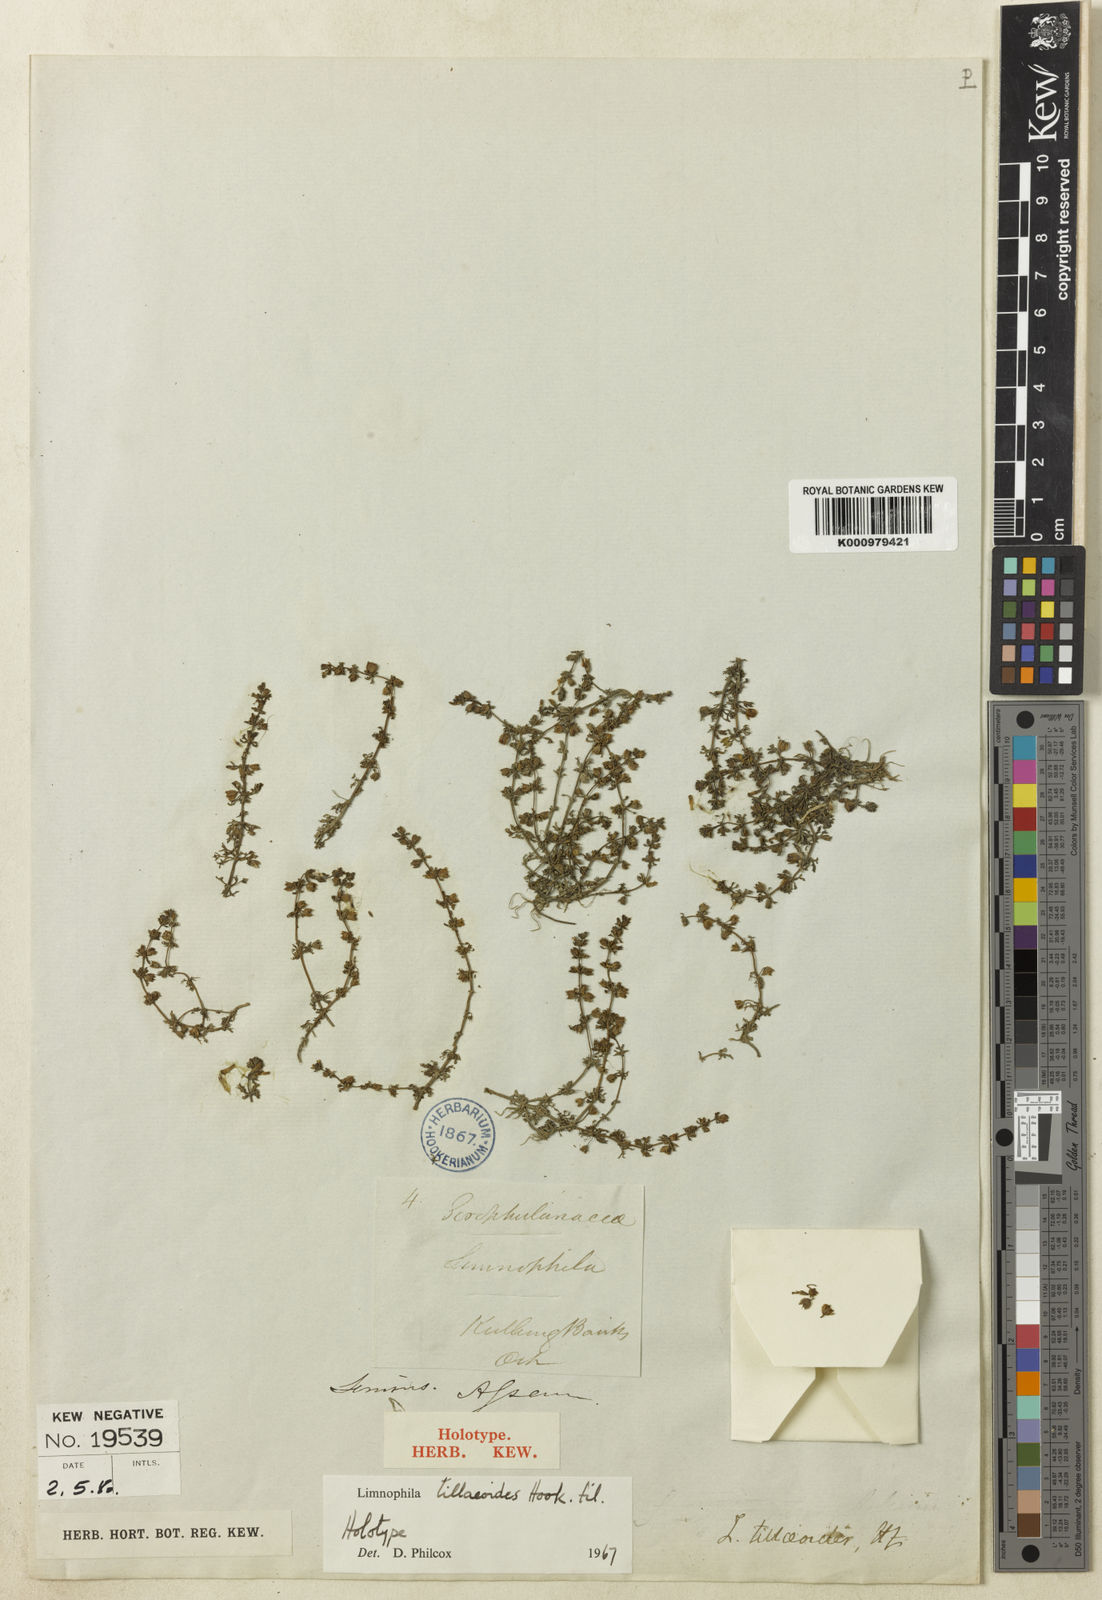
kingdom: Plantae
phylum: Tracheophyta
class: Magnoliopsida
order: Lamiales
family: Plantaginaceae
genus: Limnophila
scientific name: Limnophila tillaeoides
